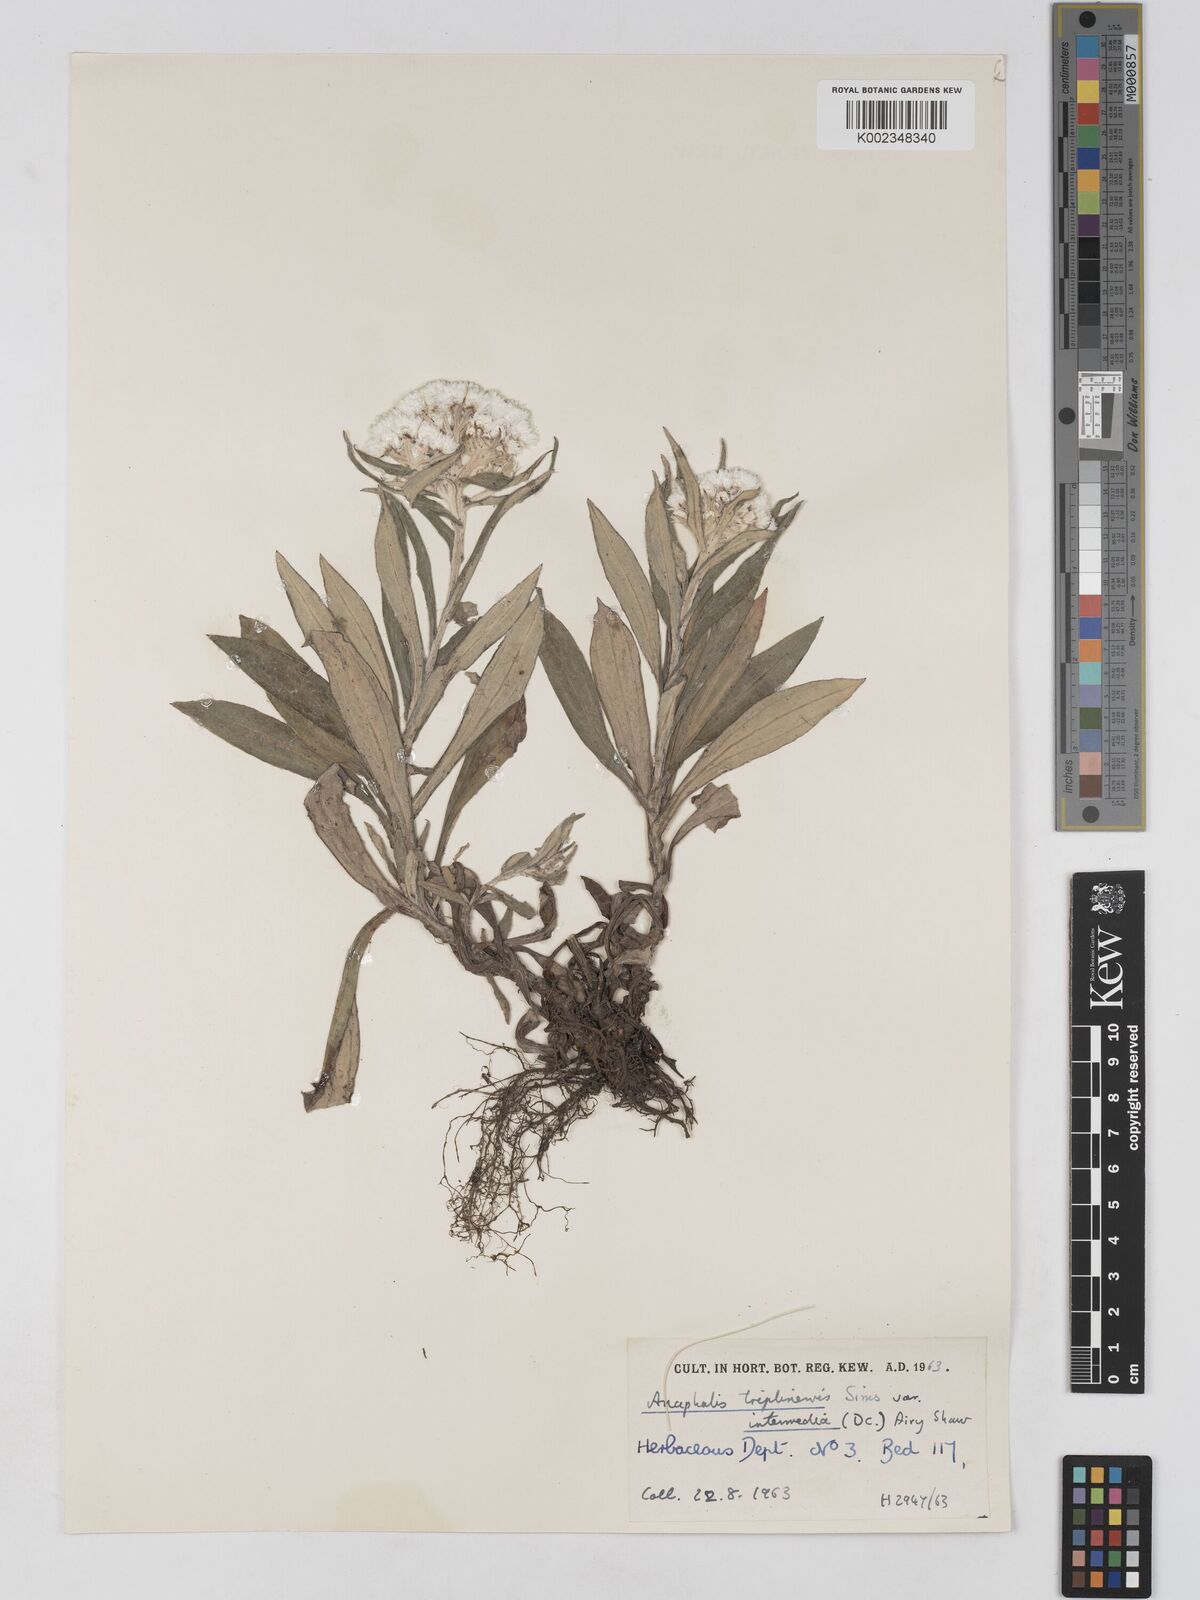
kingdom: Plantae
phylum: Tracheophyta
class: Magnoliopsida
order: Asterales
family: Asteraceae
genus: Anaphalis
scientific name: Anaphalis nepalensis
